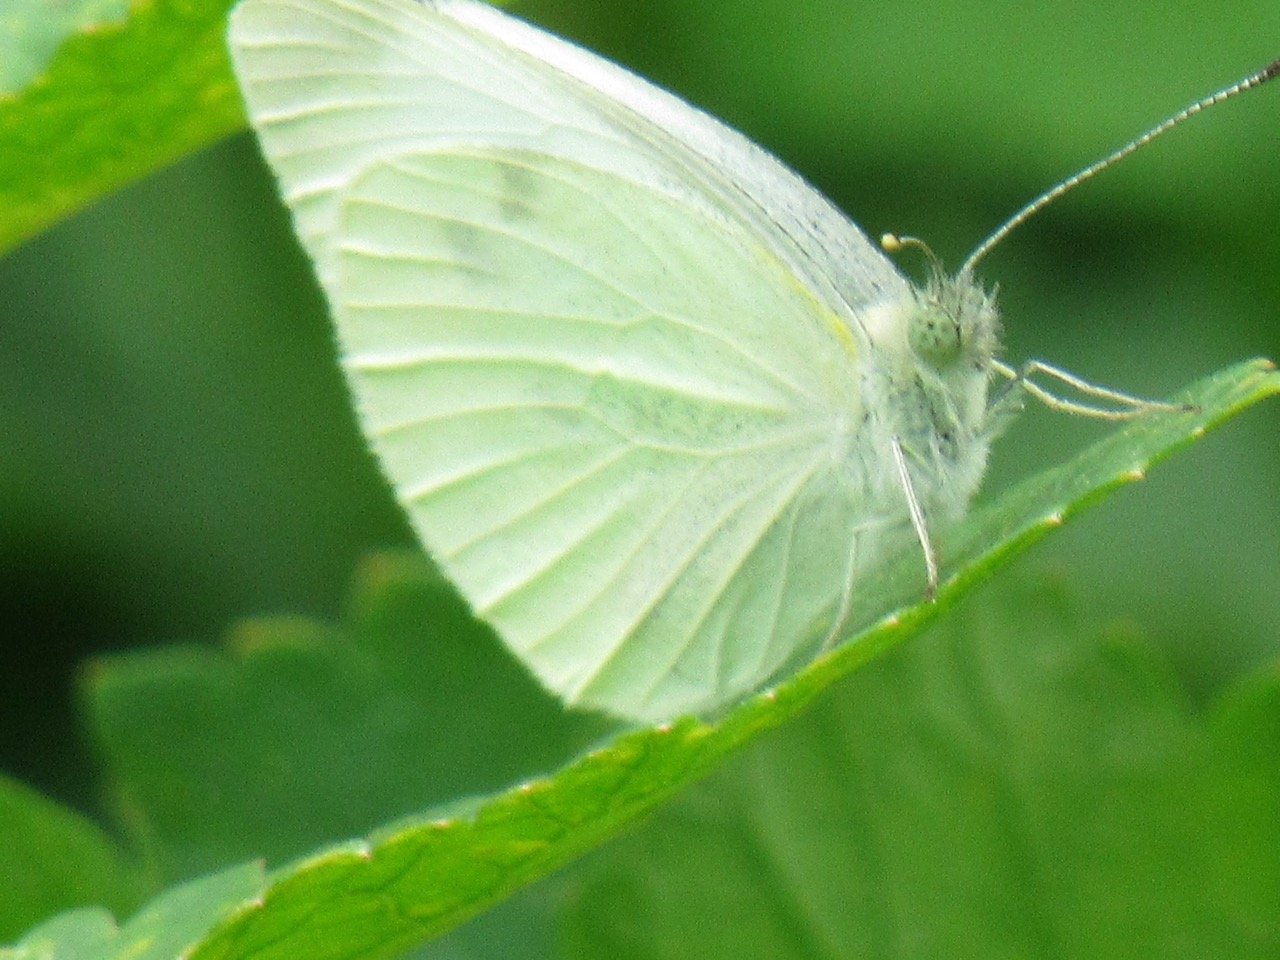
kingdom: Animalia
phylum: Arthropoda
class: Insecta
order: Lepidoptera
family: Pieridae
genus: Pieris
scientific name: Pieris rapae
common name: Cabbage White
